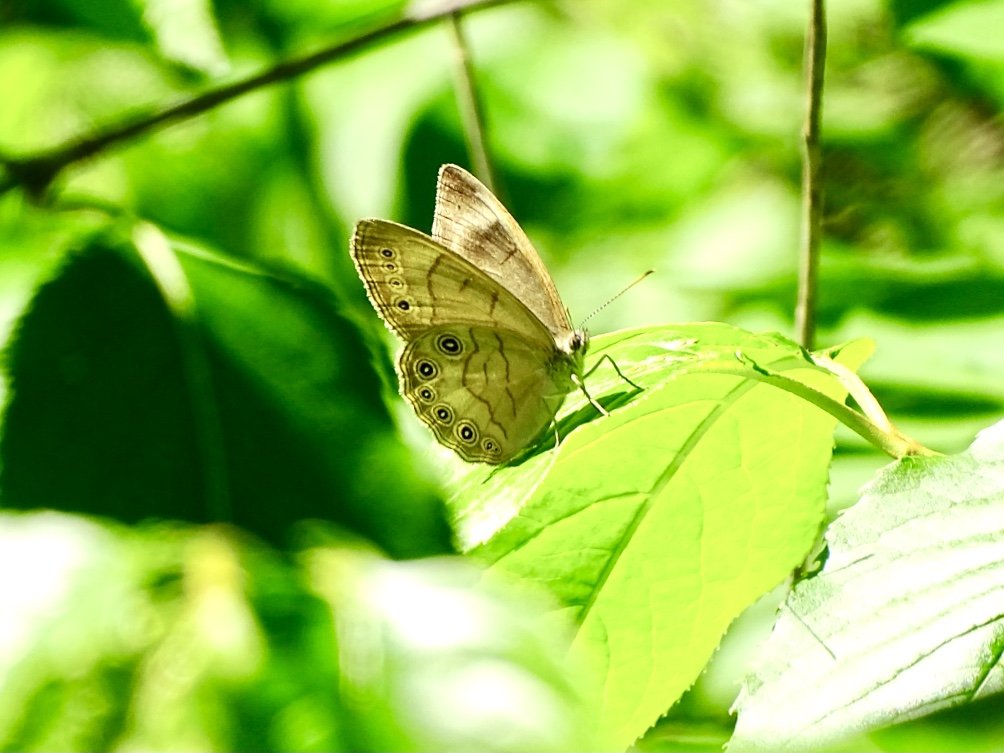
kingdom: Animalia
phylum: Arthropoda
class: Insecta
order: Lepidoptera
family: Nymphalidae
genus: Lethe
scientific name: Lethe eurydice
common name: Appalachian Eyed Brown
